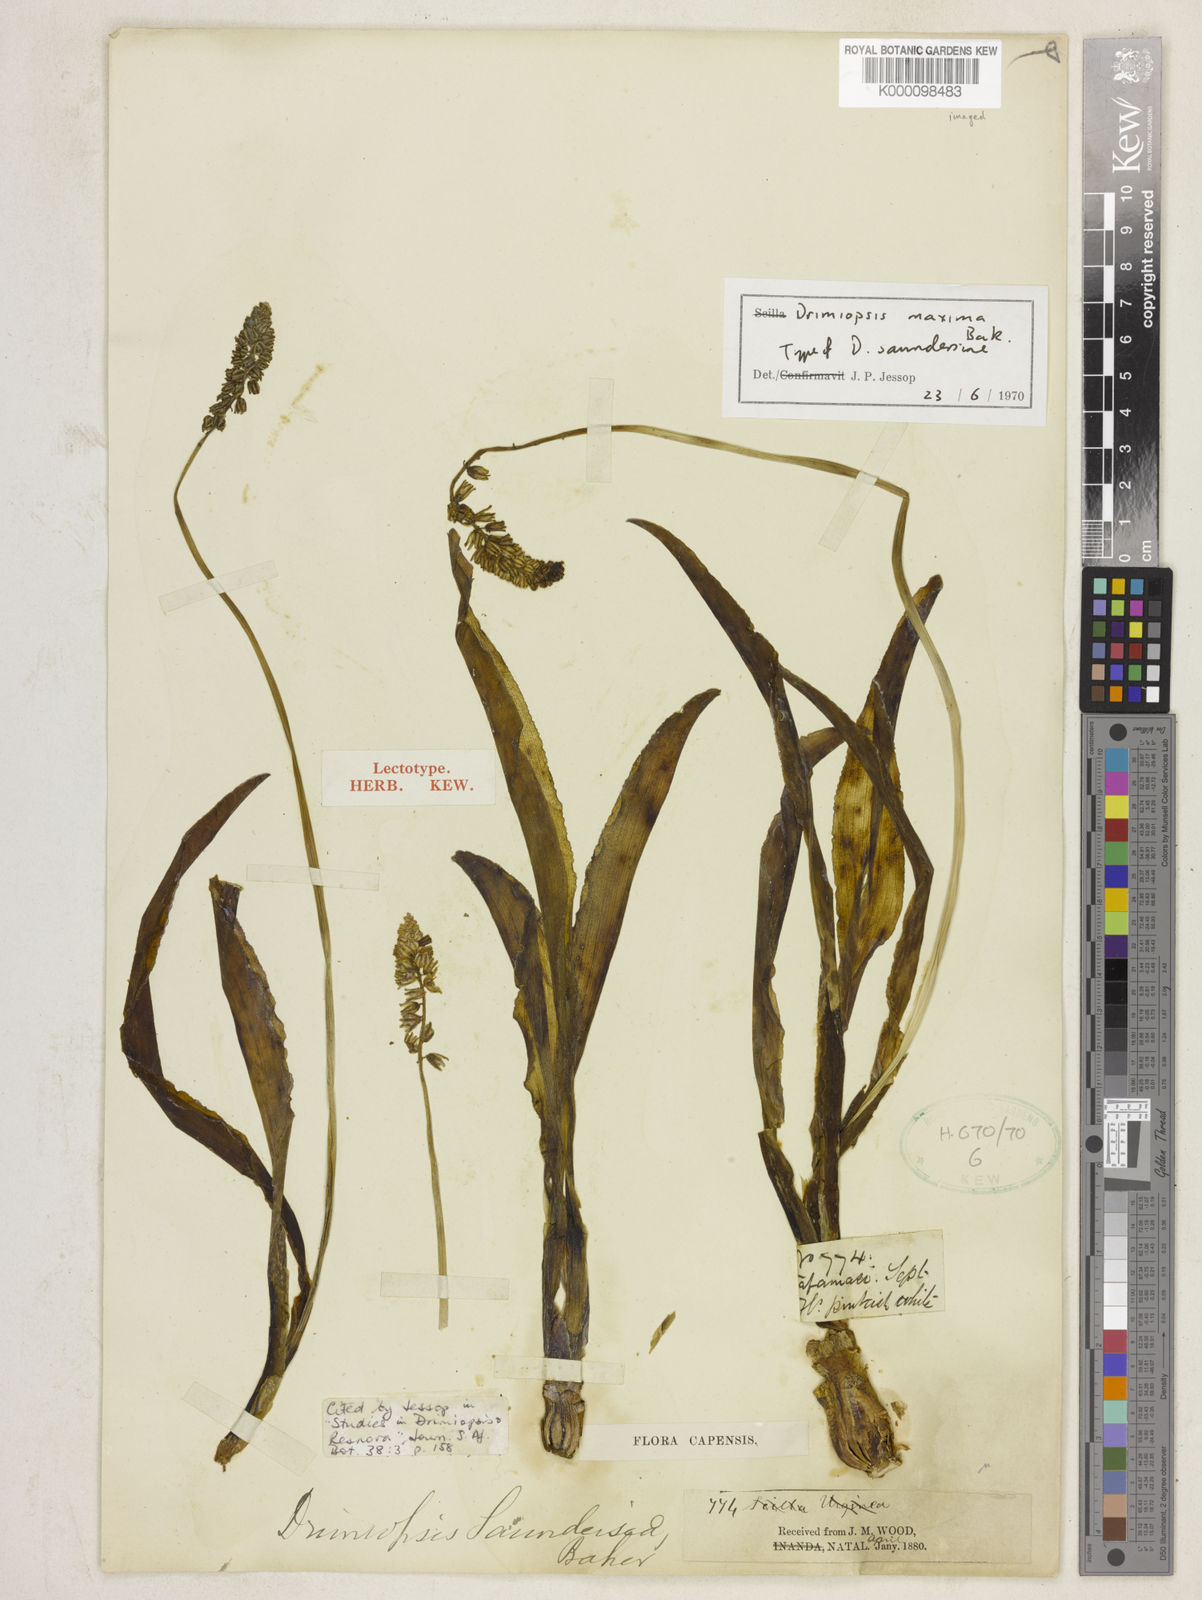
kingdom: Plantae
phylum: Tracheophyta
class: Liliopsida
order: Asparagales
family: Asparagaceae
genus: Resnova
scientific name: Resnova humifusa
